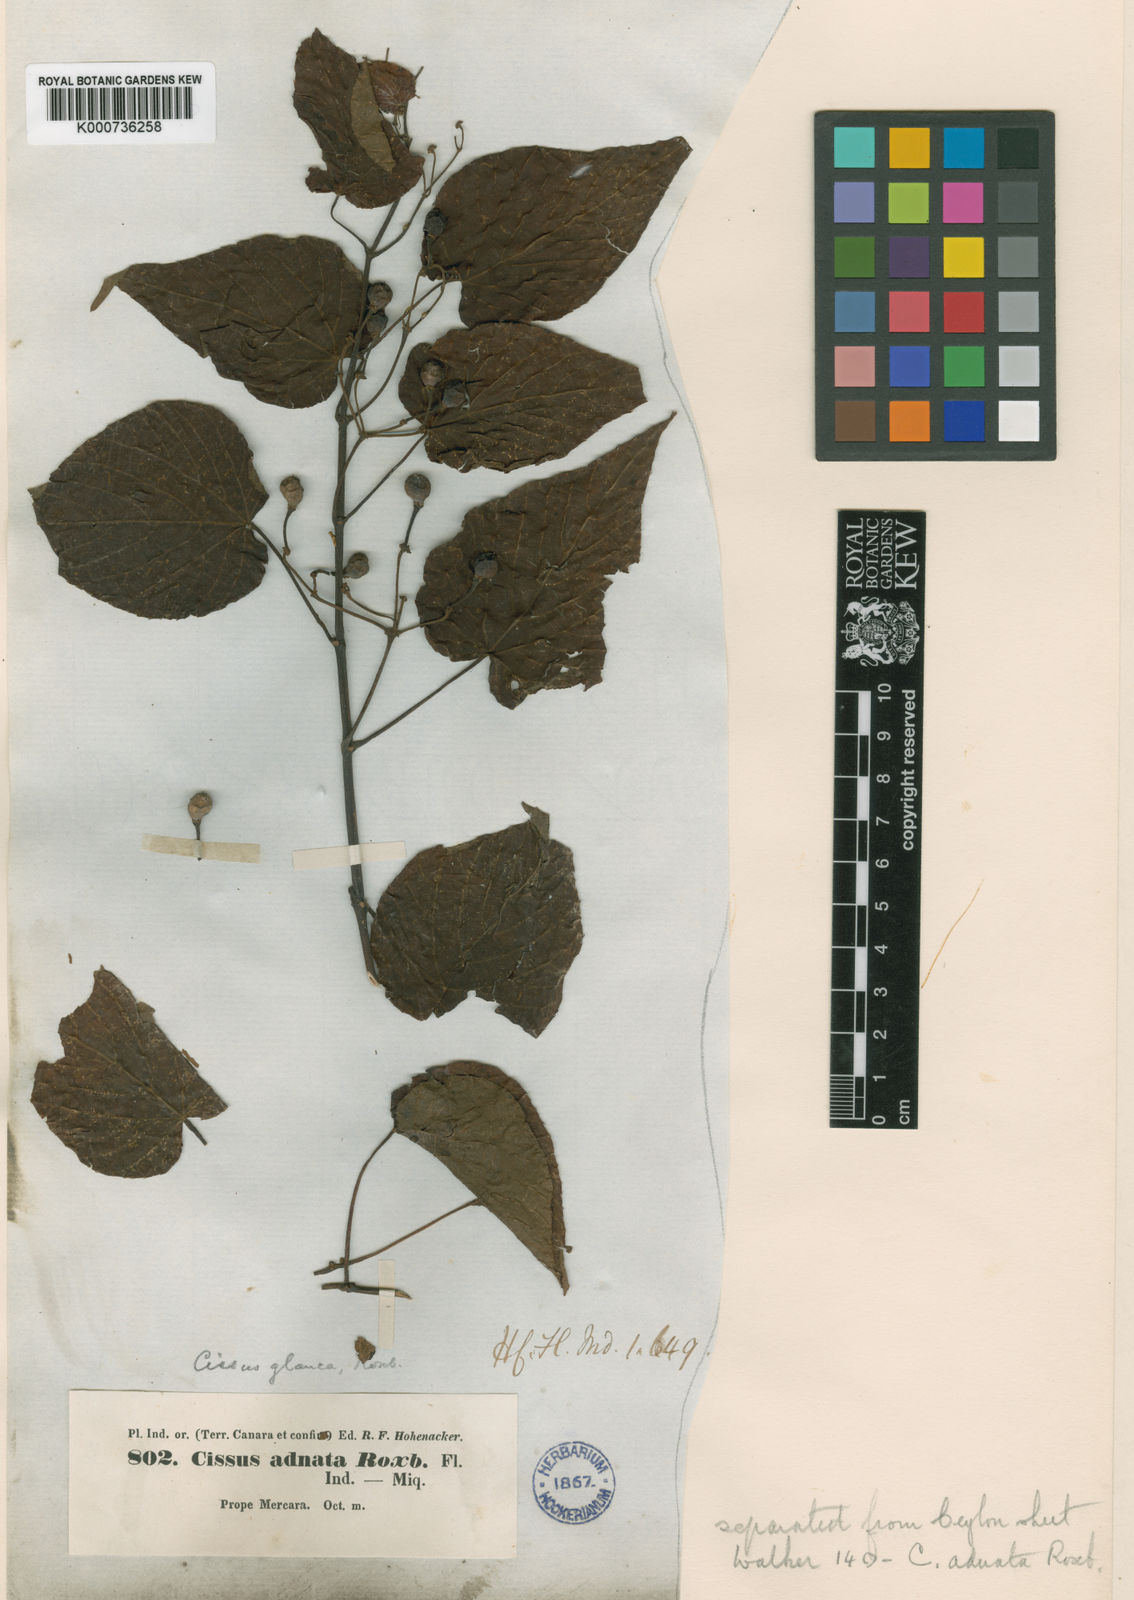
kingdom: Plantae
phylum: Tracheophyta
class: Magnoliopsida
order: Vitales
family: Vitaceae
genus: Cissus
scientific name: Cissus adnata
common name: Heart-leaf-grape
